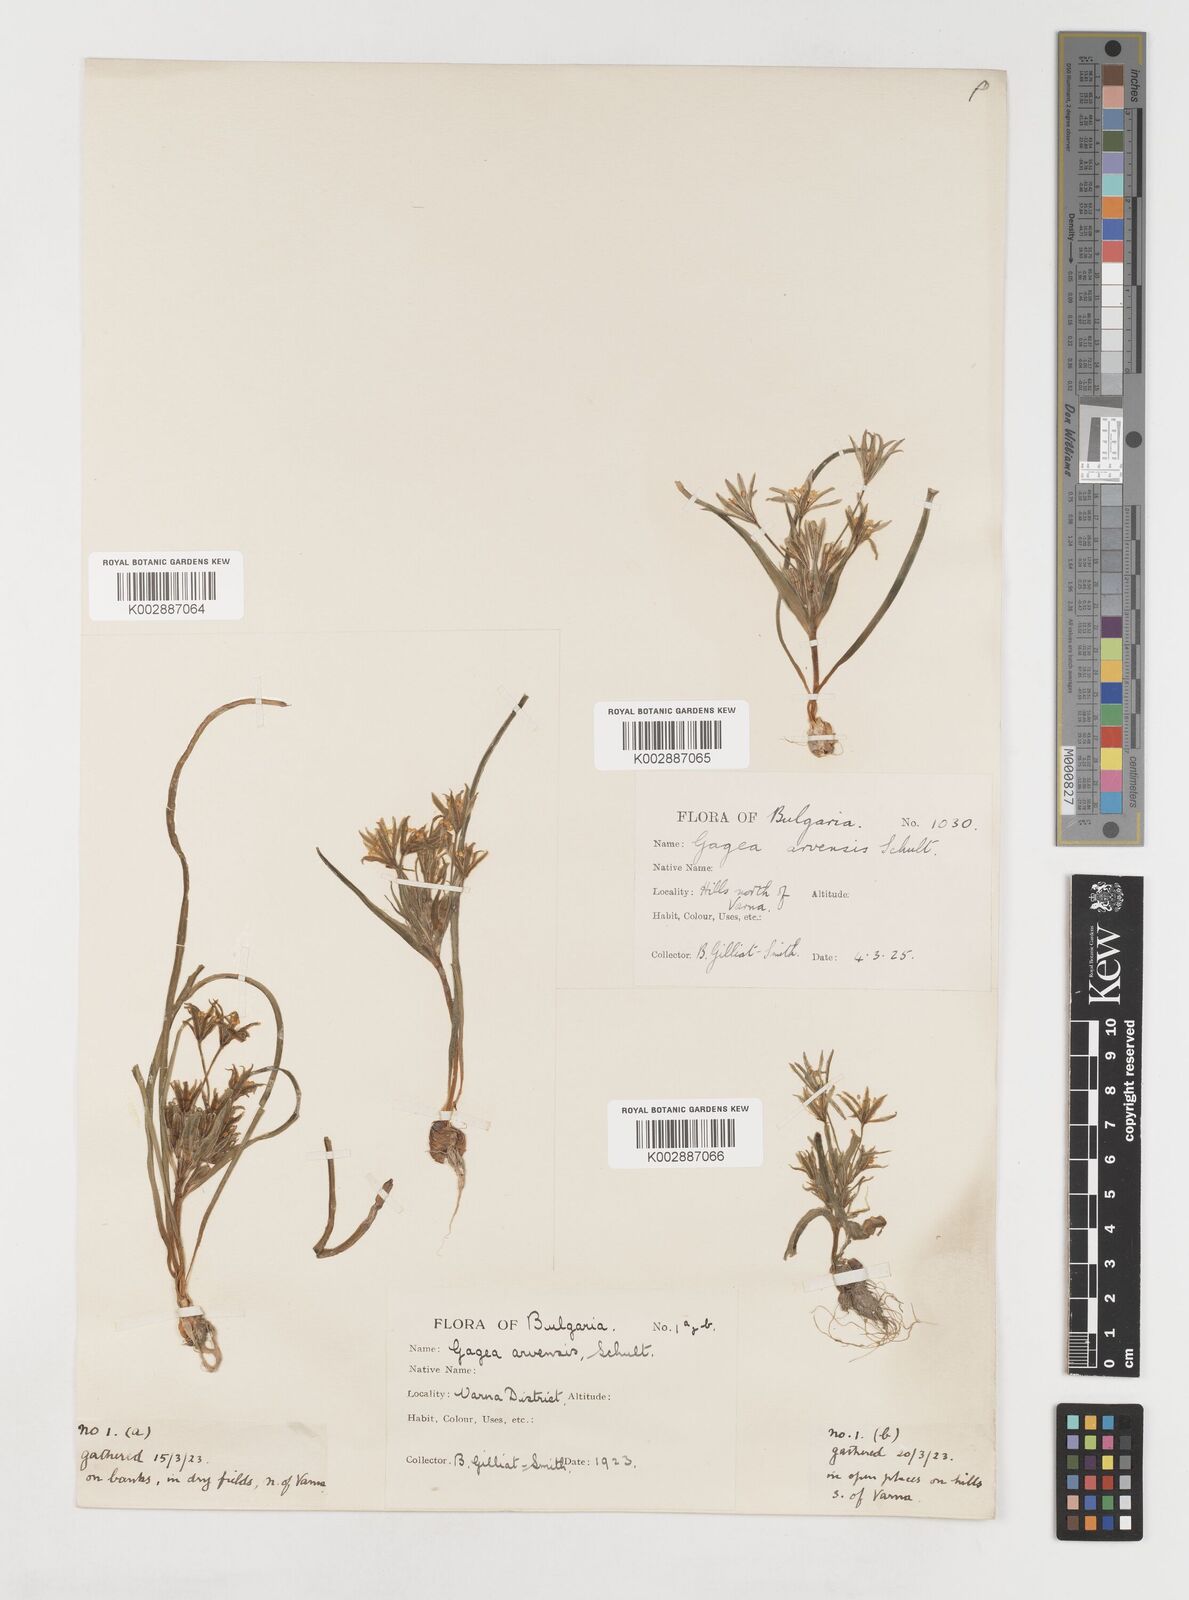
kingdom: Plantae
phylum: Tracheophyta
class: Liliopsida
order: Liliales
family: Liliaceae
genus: Gagea
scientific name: Gagea minima
